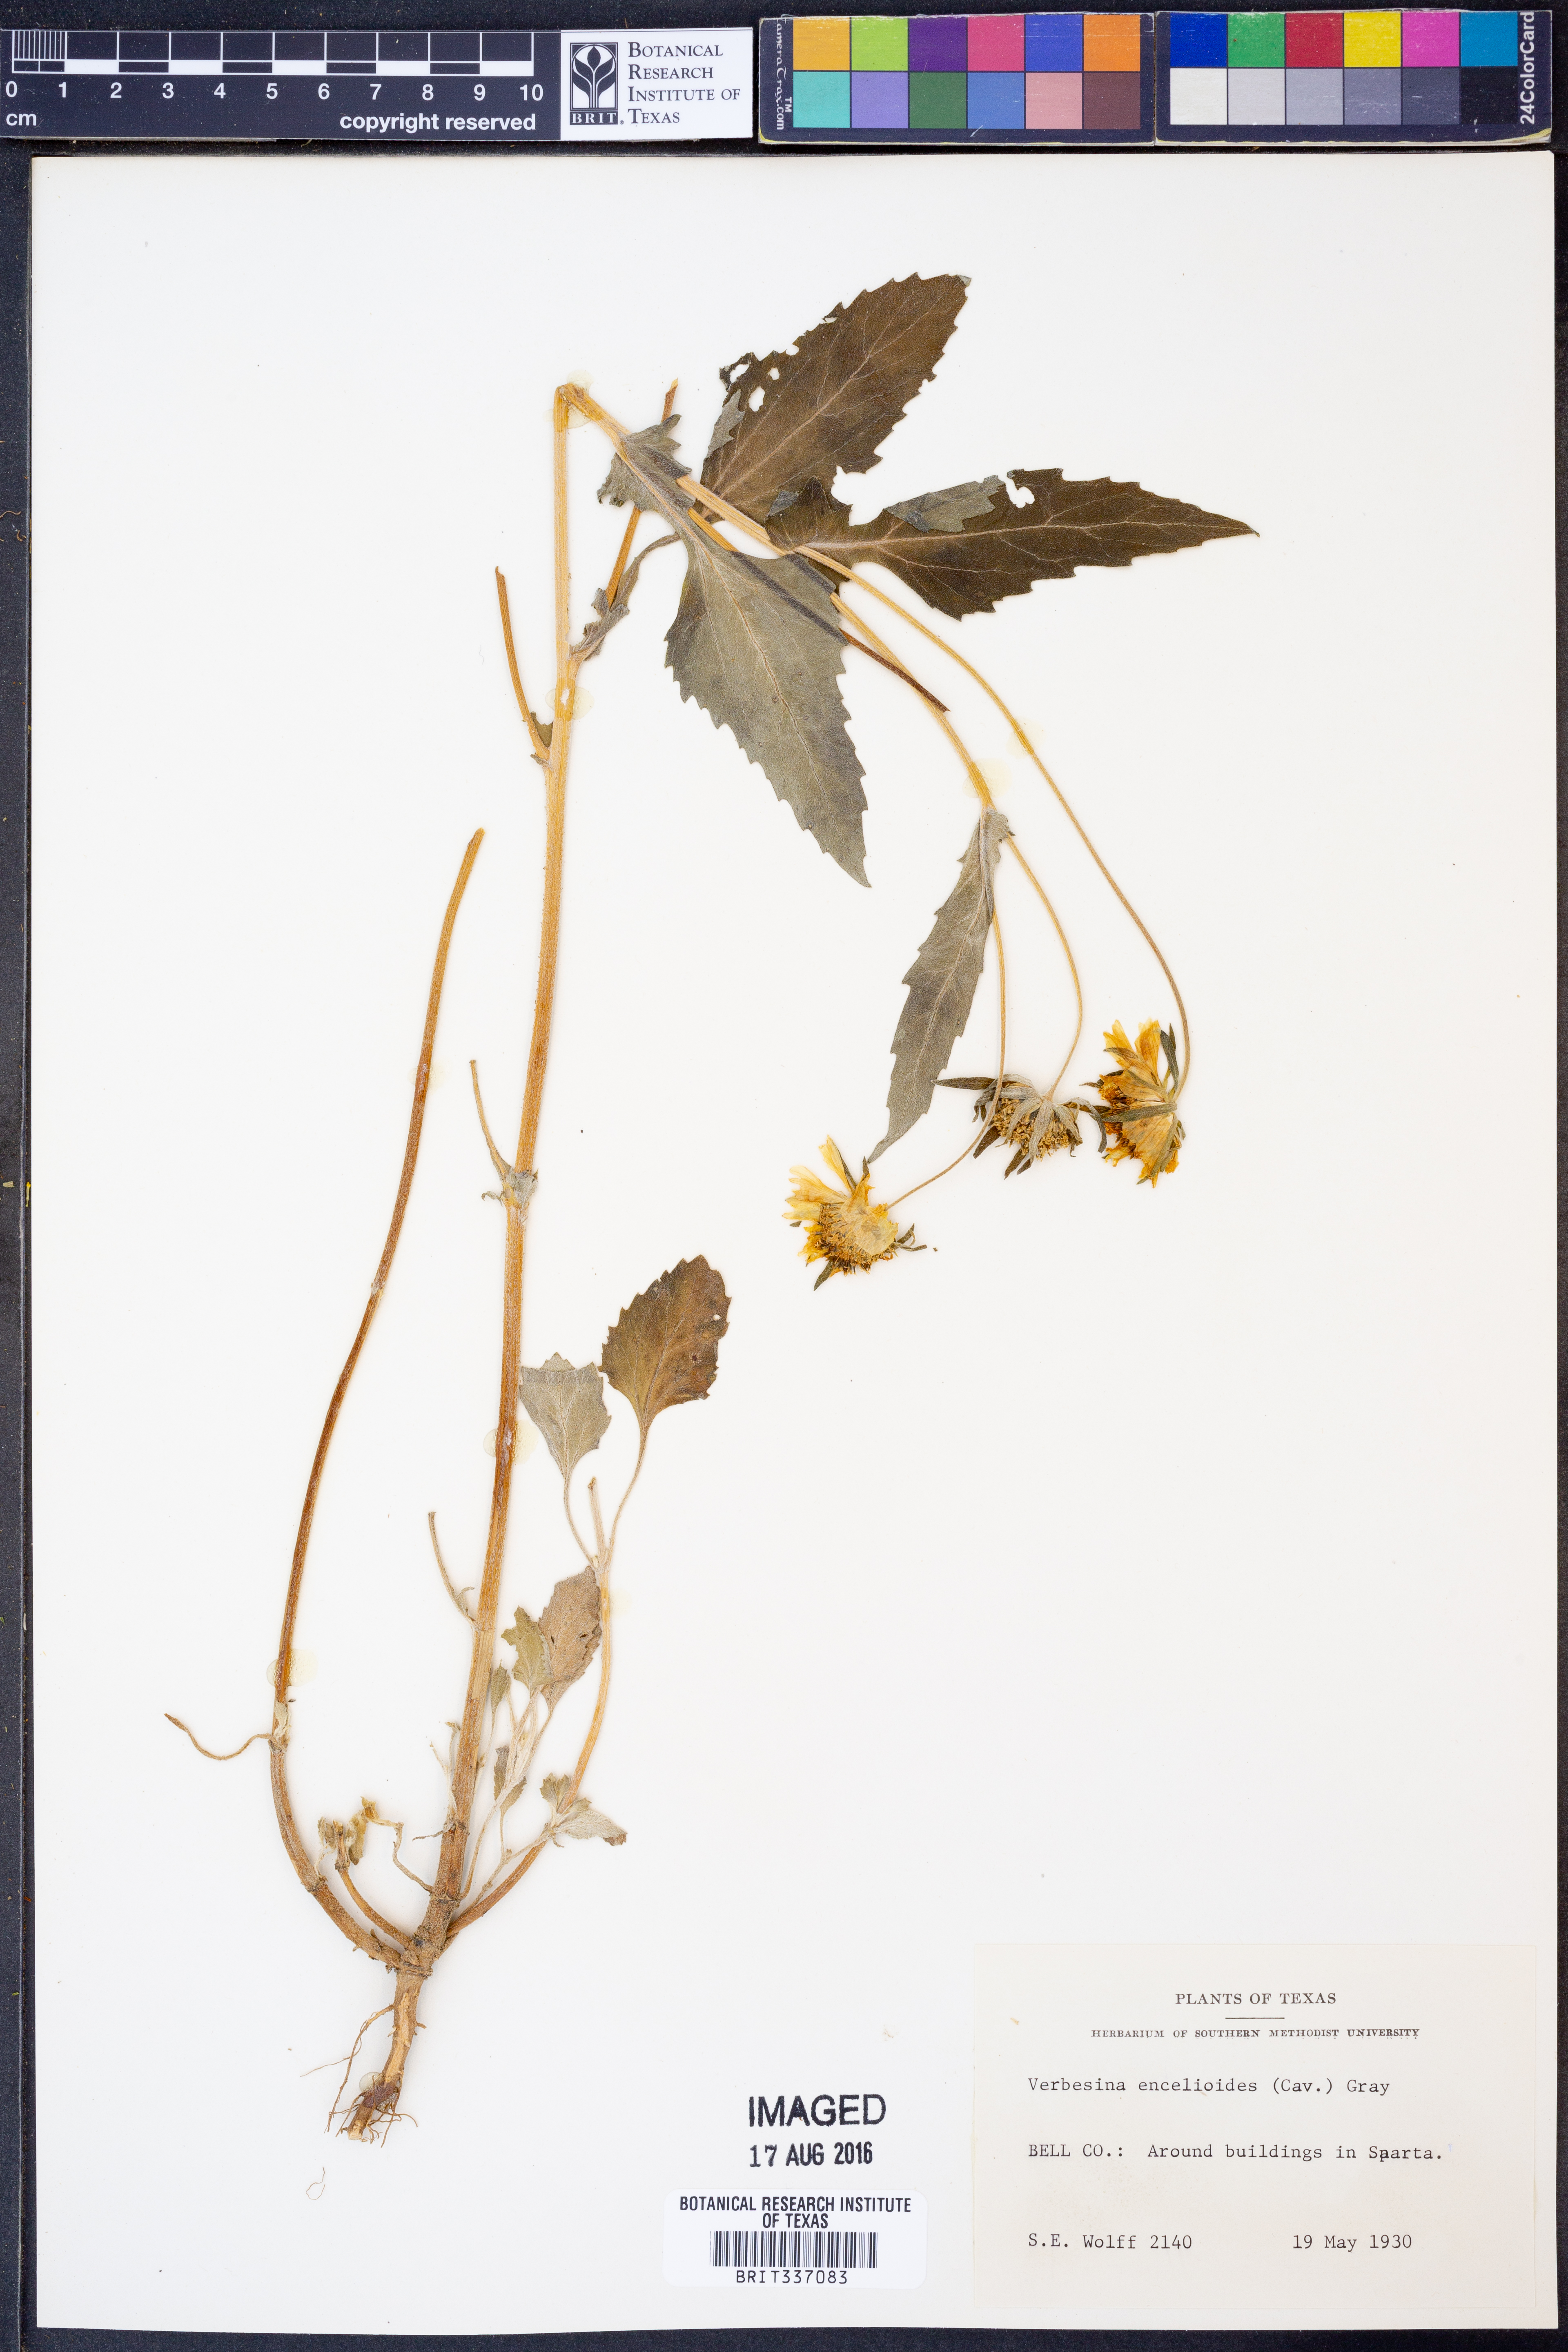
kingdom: Plantae
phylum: Tracheophyta
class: Magnoliopsida
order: Asterales
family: Asteraceae
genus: Verbesina
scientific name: Verbesina encelioides
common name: Golden crownbeard
